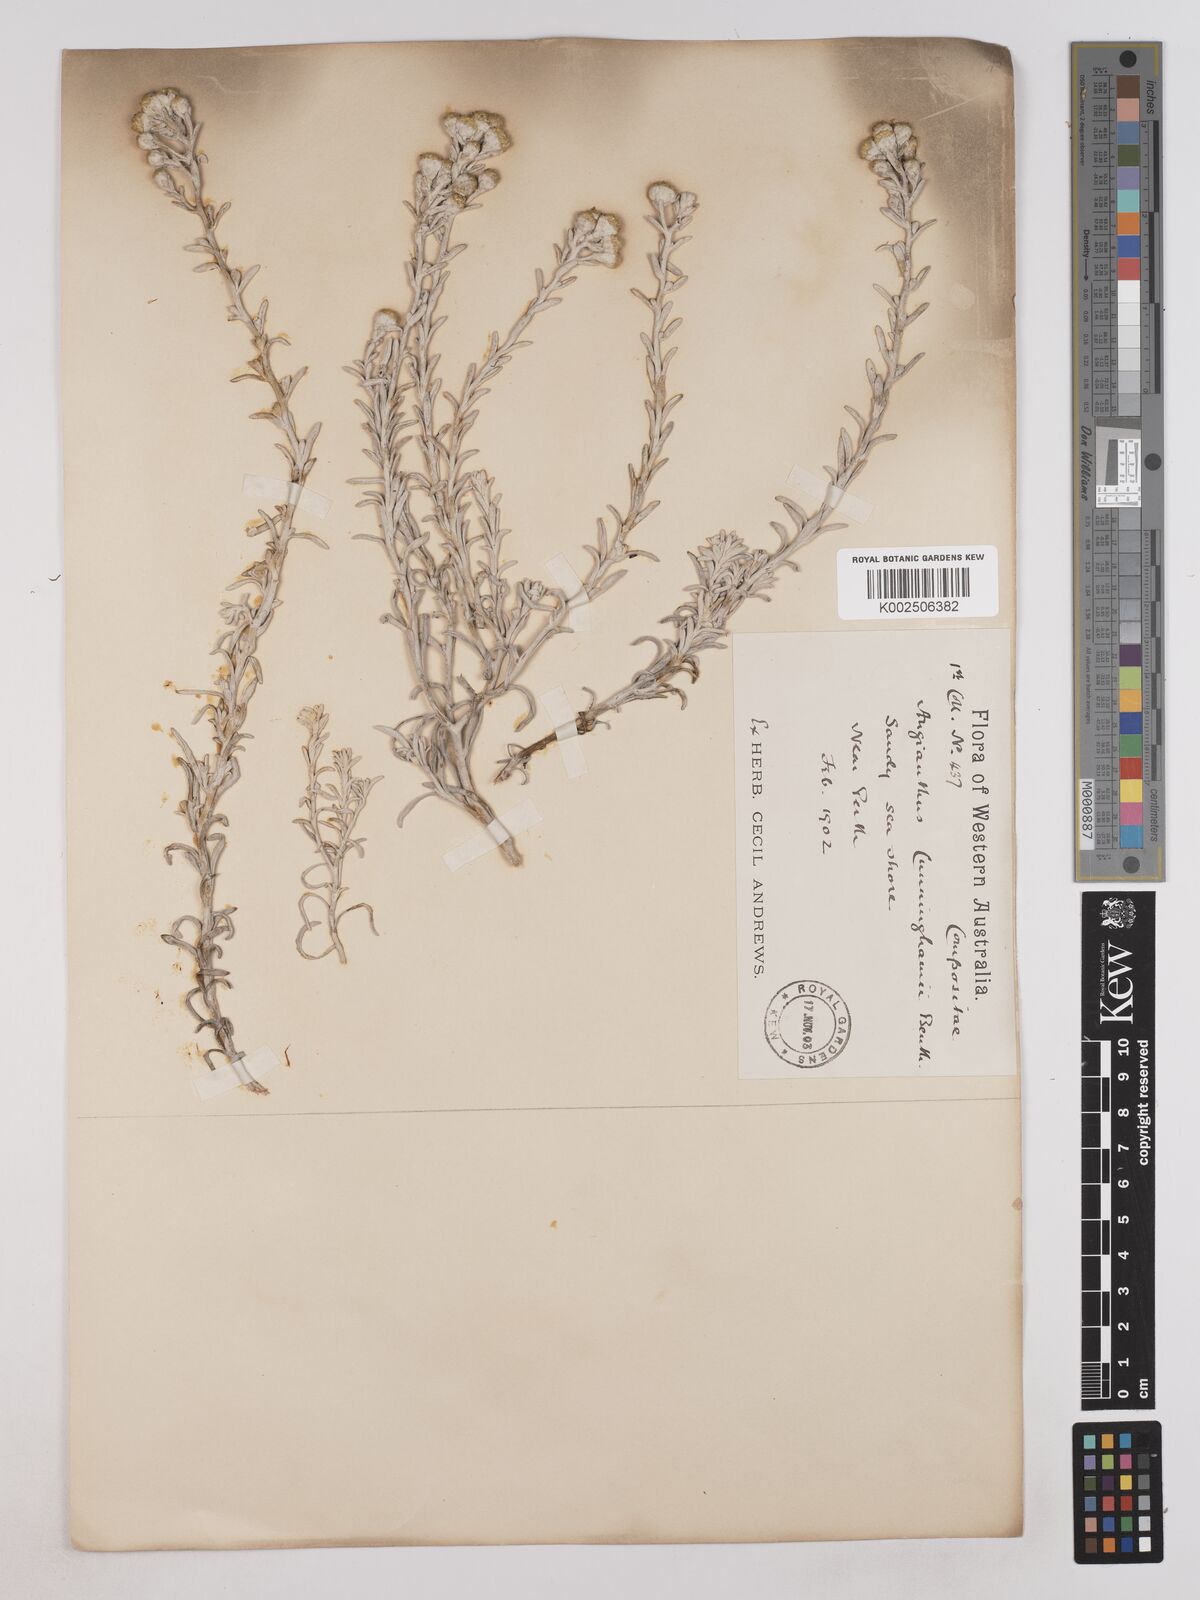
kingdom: Plantae
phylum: Tracheophyta
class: Magnoliopsida
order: Asterales
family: Asteraceae
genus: Angianthus
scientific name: Angianthus cunninghamii
